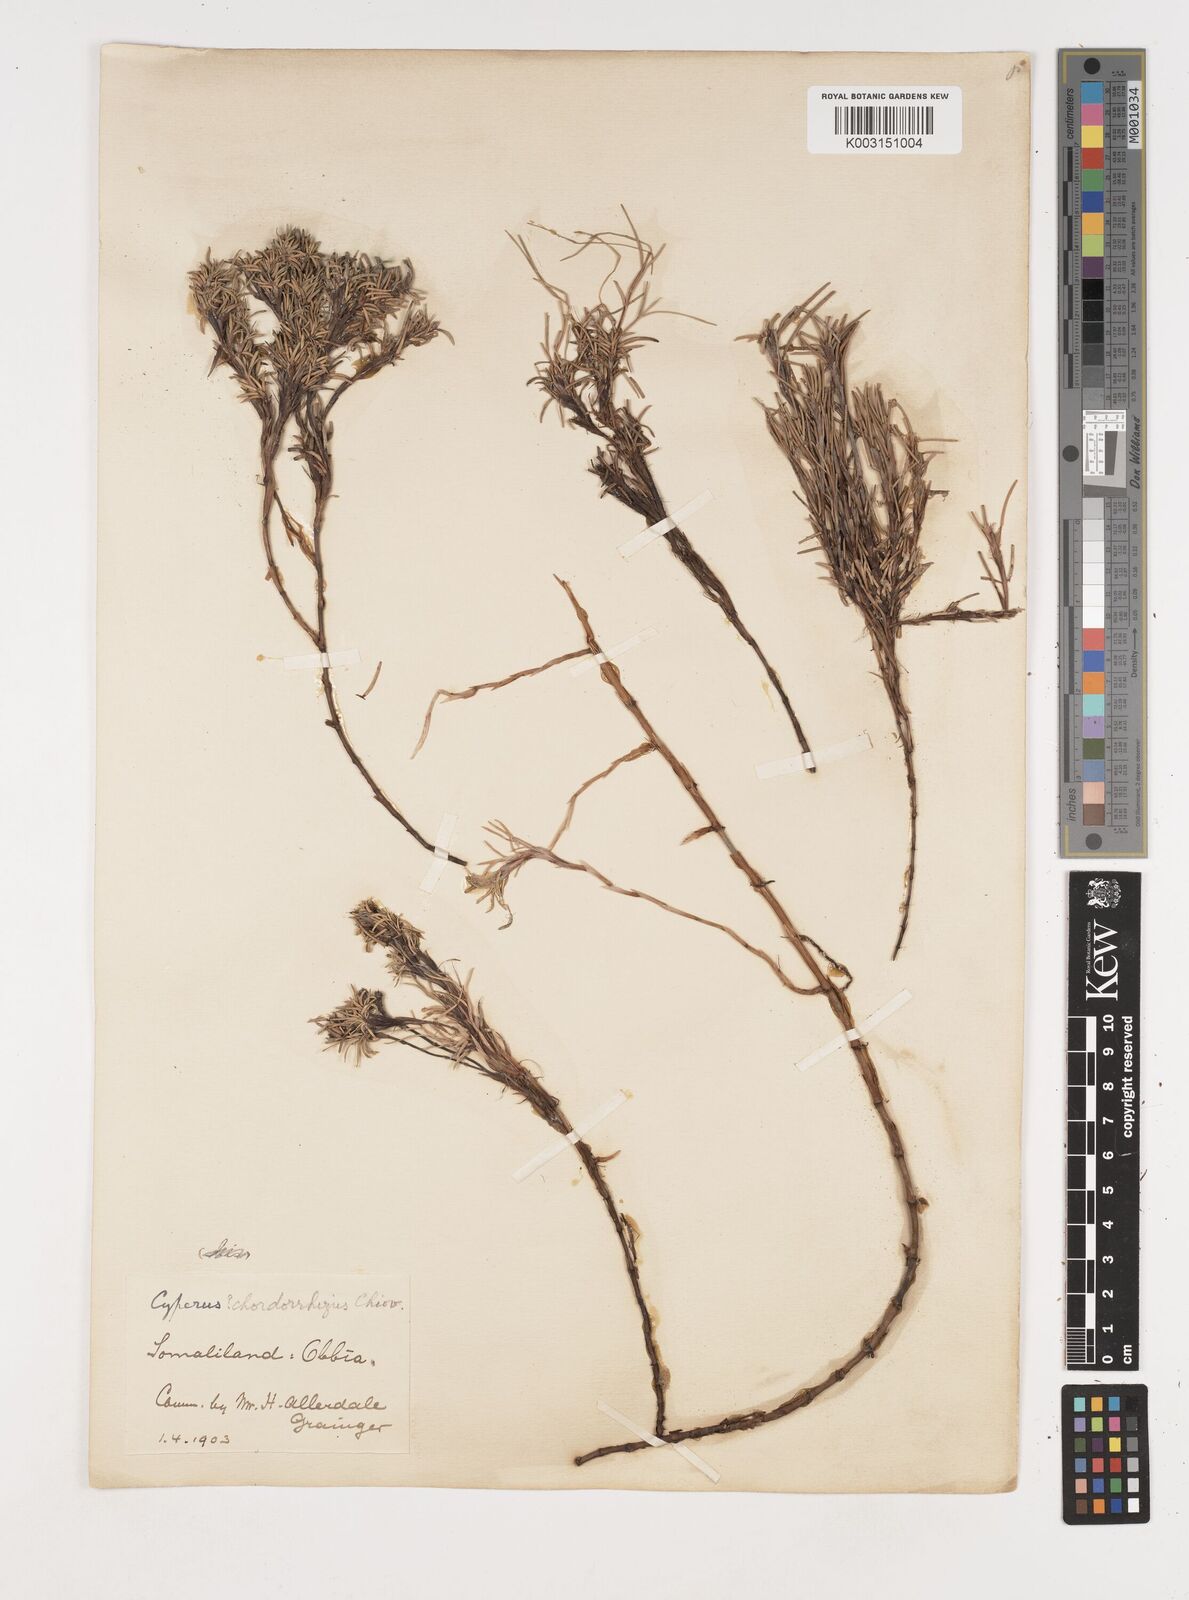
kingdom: Plantae
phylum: Tracheophyta
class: Liliopsida
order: Poales
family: Cyperaceae
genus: Cyperus
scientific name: Cyperus chordorrhizus
